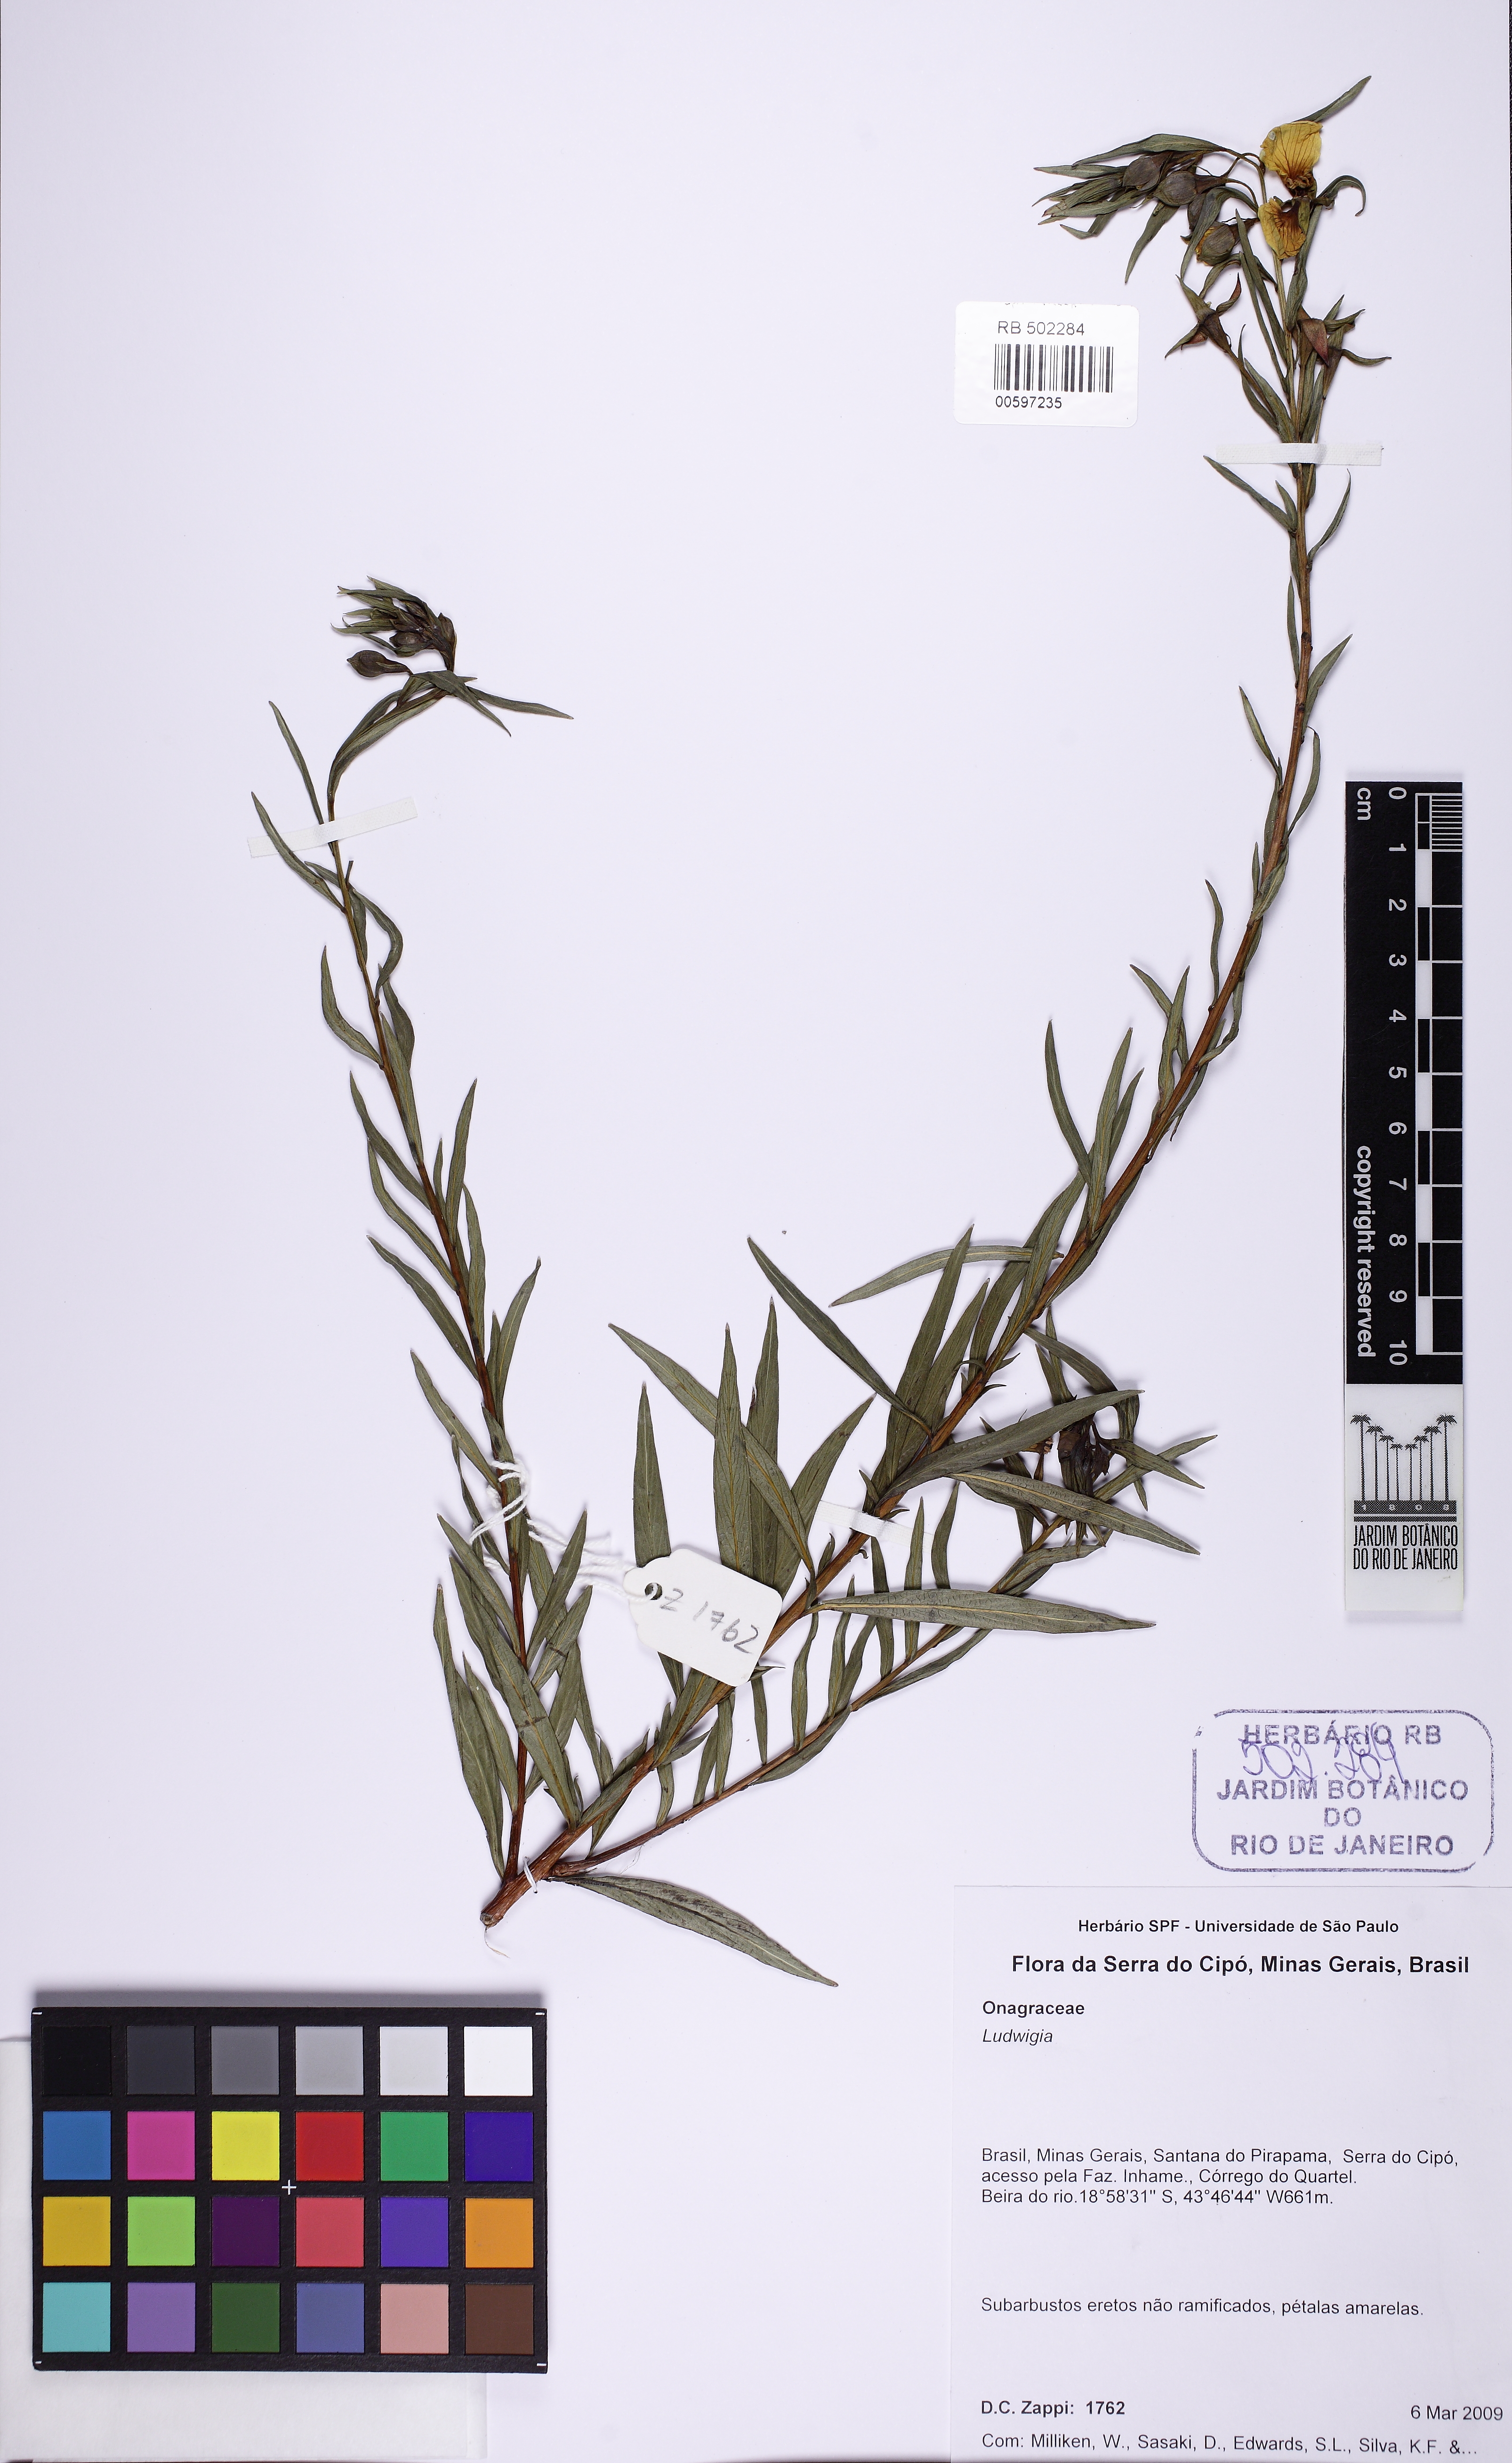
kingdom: Plantae
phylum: Tracheophyta
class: Magnoliopsida
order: Myrtales
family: Onagraceae
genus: Ludwigia
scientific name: Ludwigia
